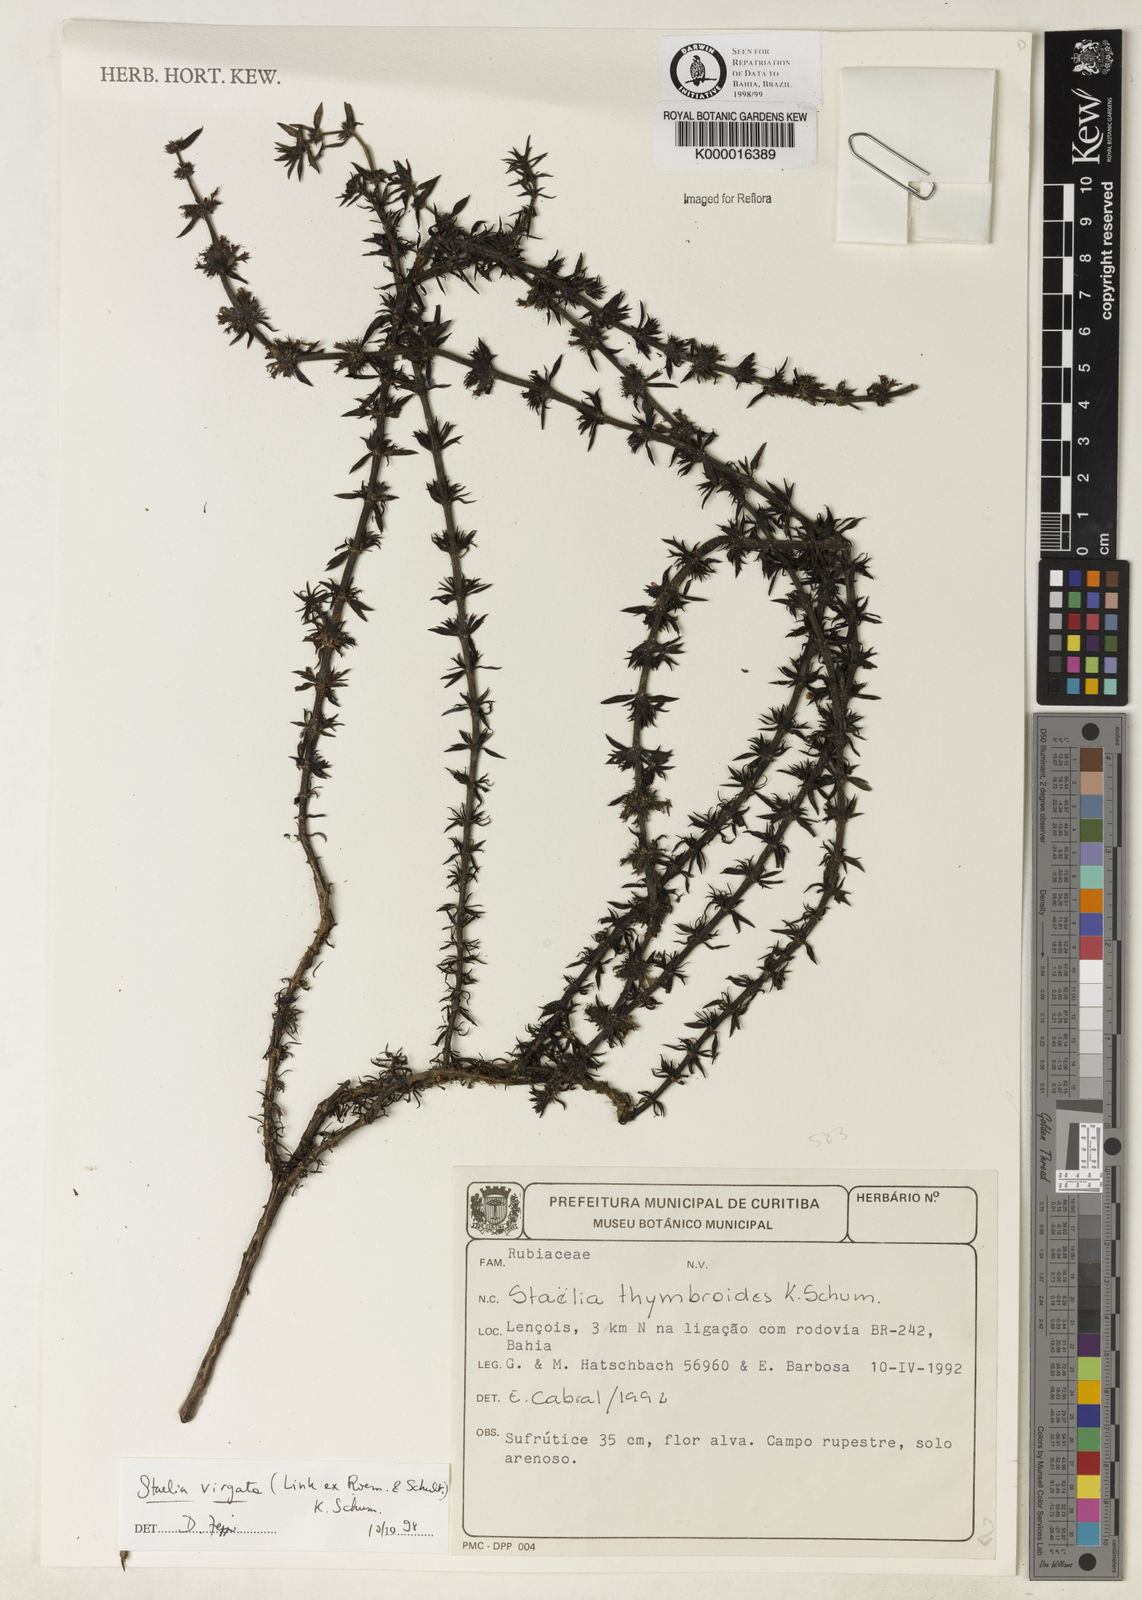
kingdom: Plantae
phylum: Tracheophyta
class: Magnoliopsida
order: Gentianales
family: Rubiaceae
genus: Staelia
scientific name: Staelia virgata
